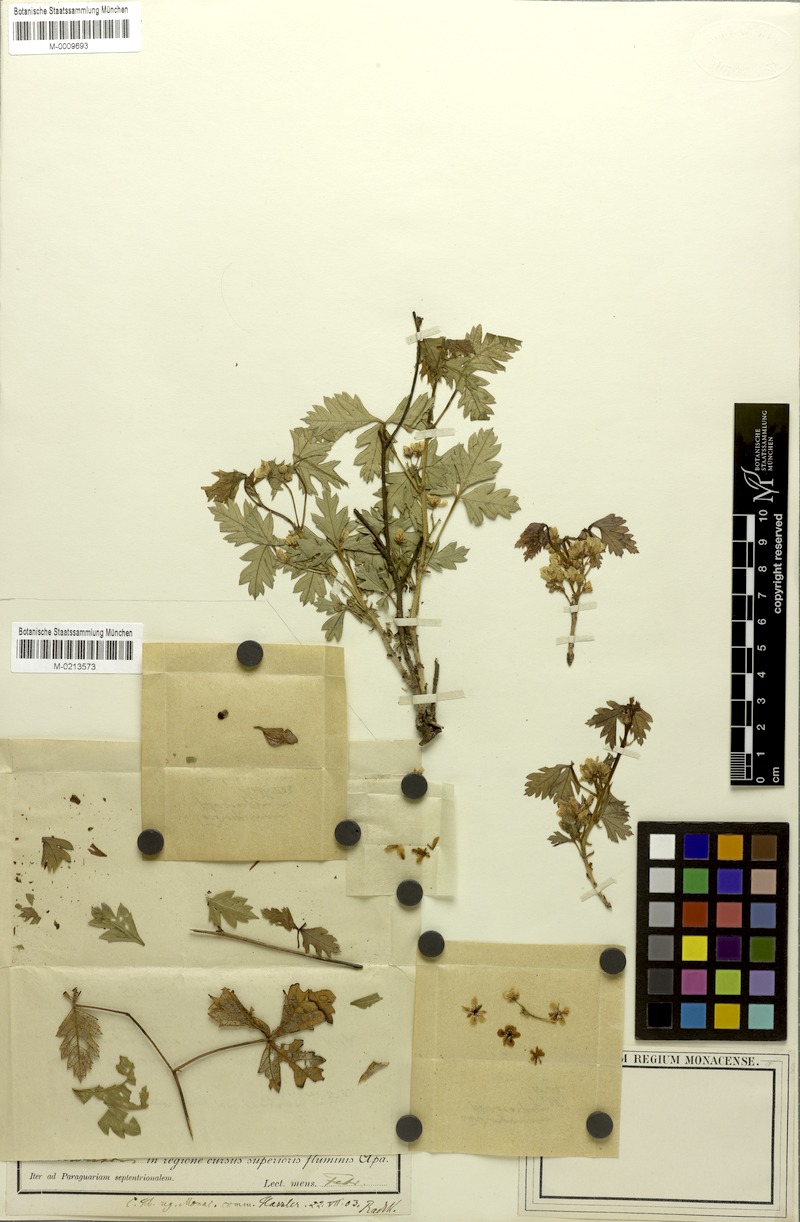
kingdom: Plantae
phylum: Tracheophyta
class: Magnoliopsida
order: Sapindales
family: Sapindaceae
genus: Urvillea
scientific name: Urvillea pterocarpa
